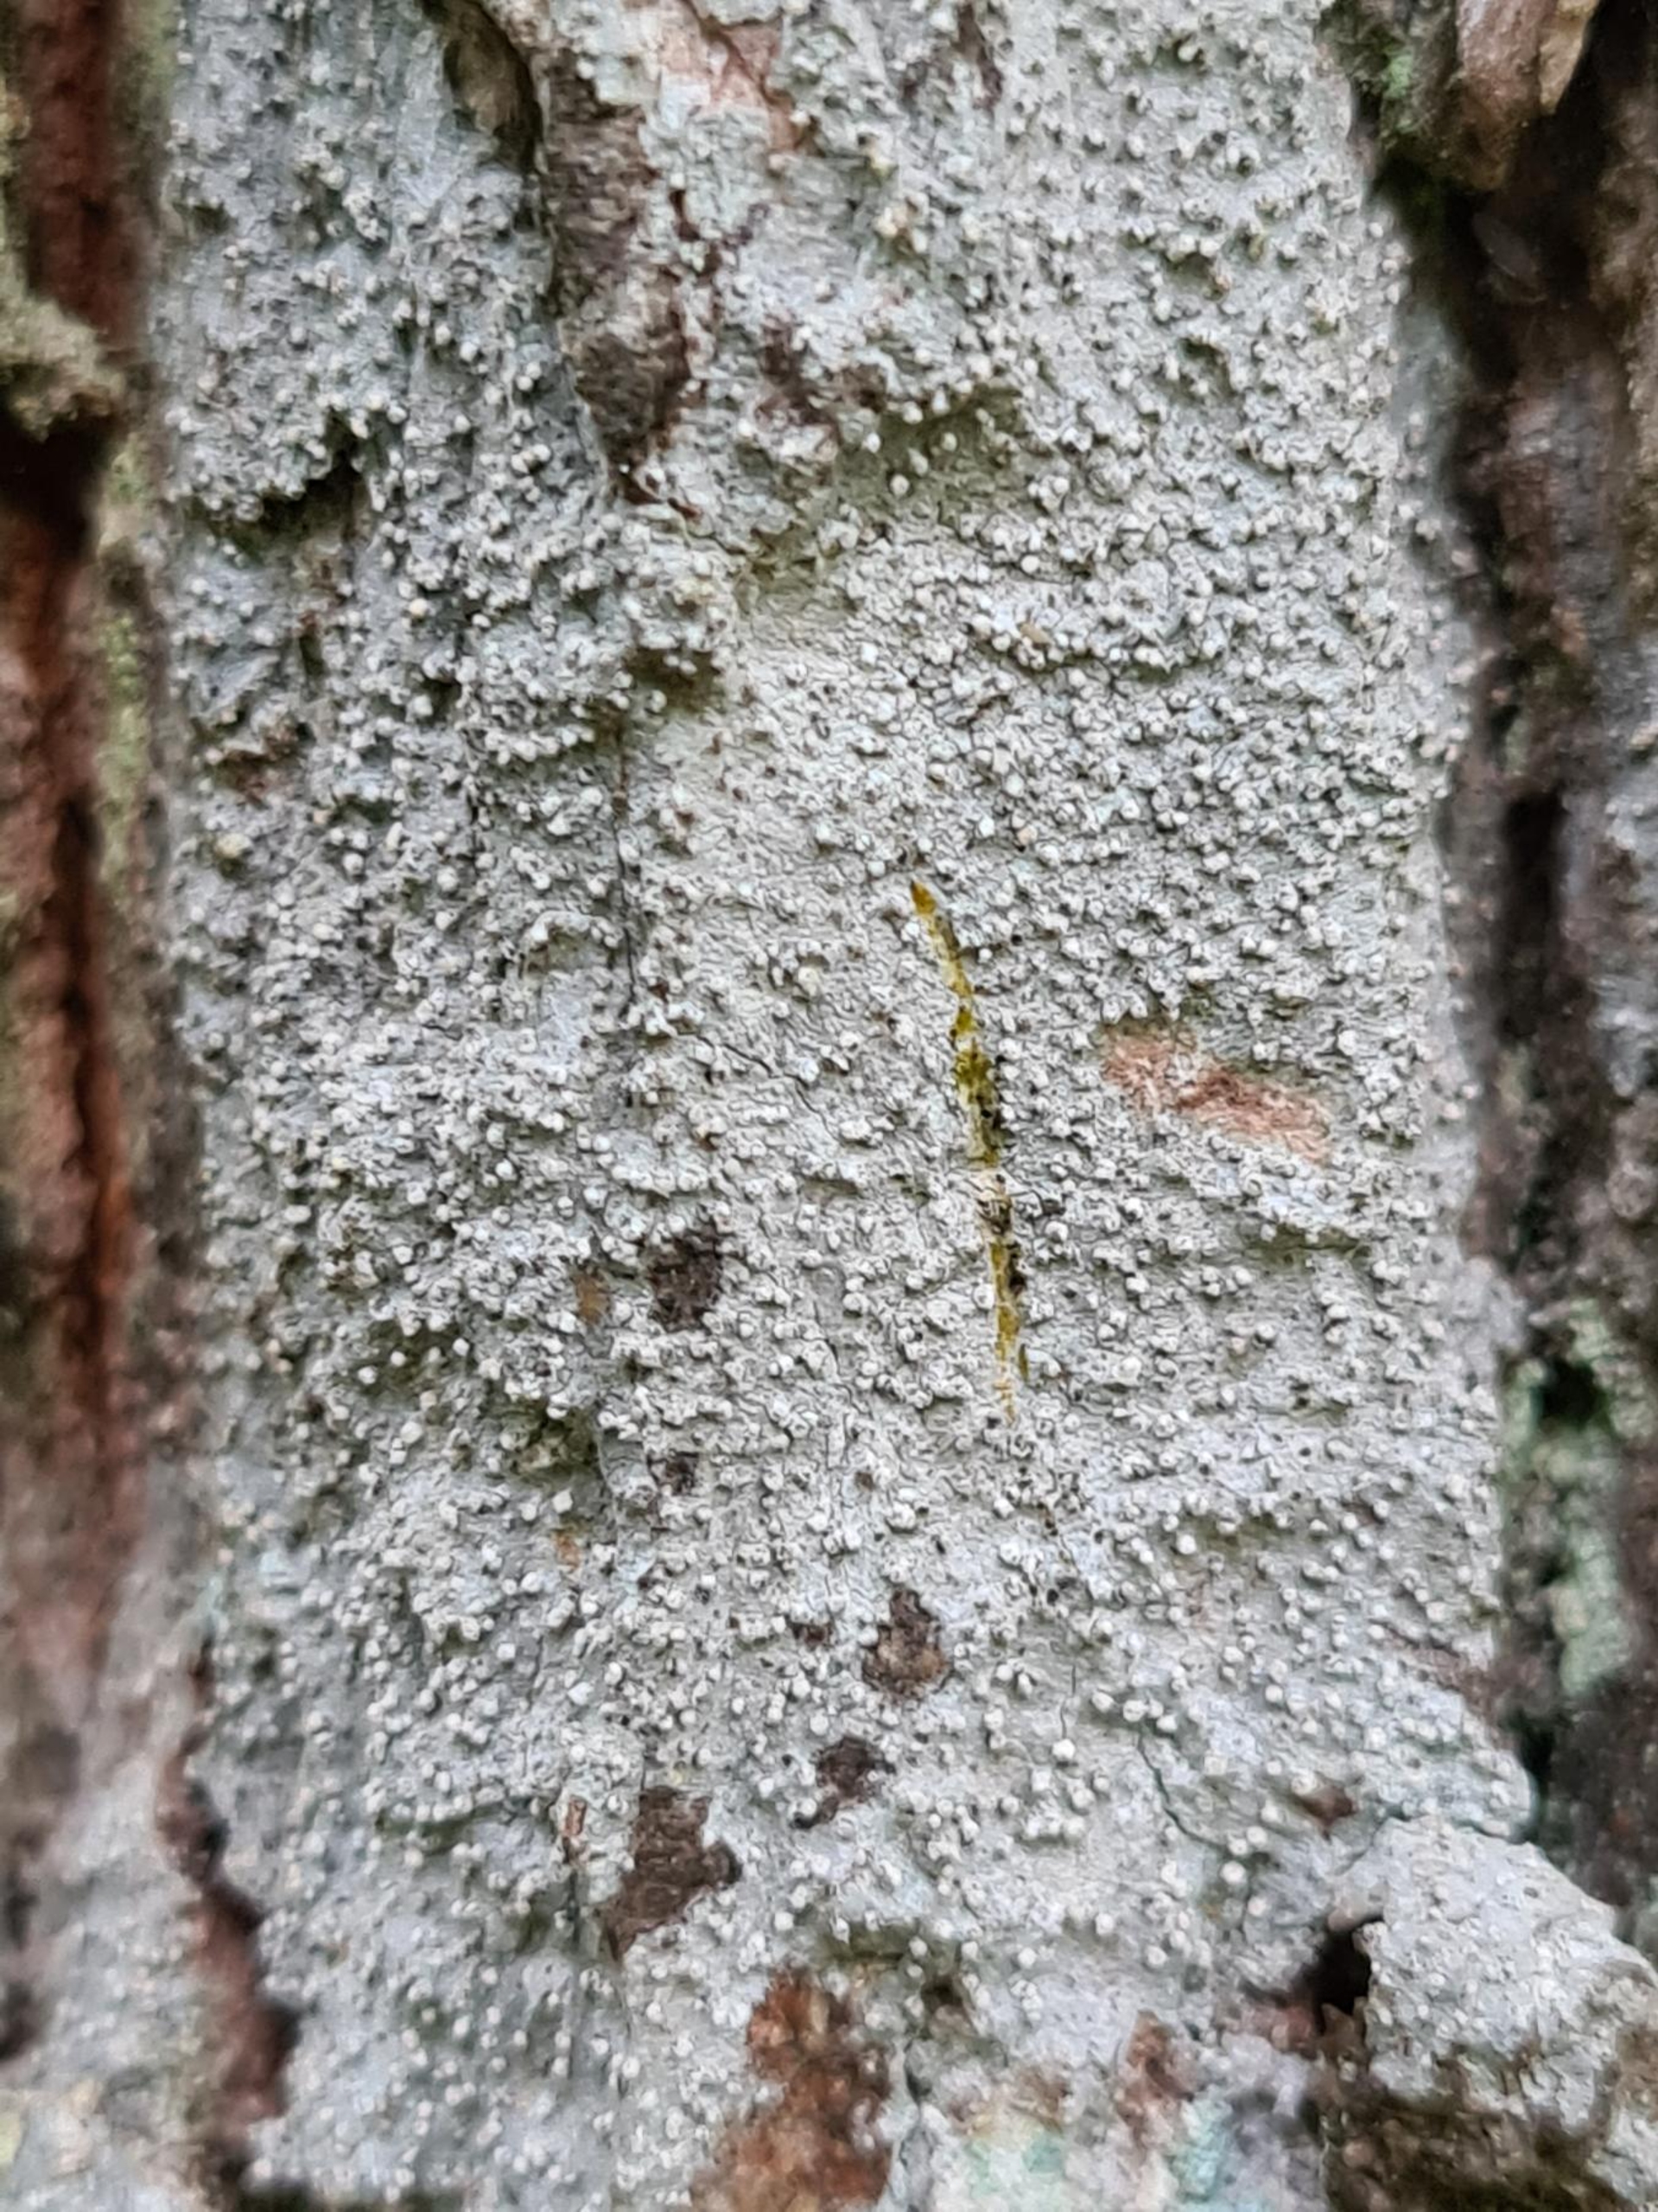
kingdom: Fungi
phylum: Ascomycota
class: Arthoniomycetes
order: Arthoniales
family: Roccellaceae
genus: Lecanactis
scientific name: Lecanactis abietina
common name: Grå dugskivelav
